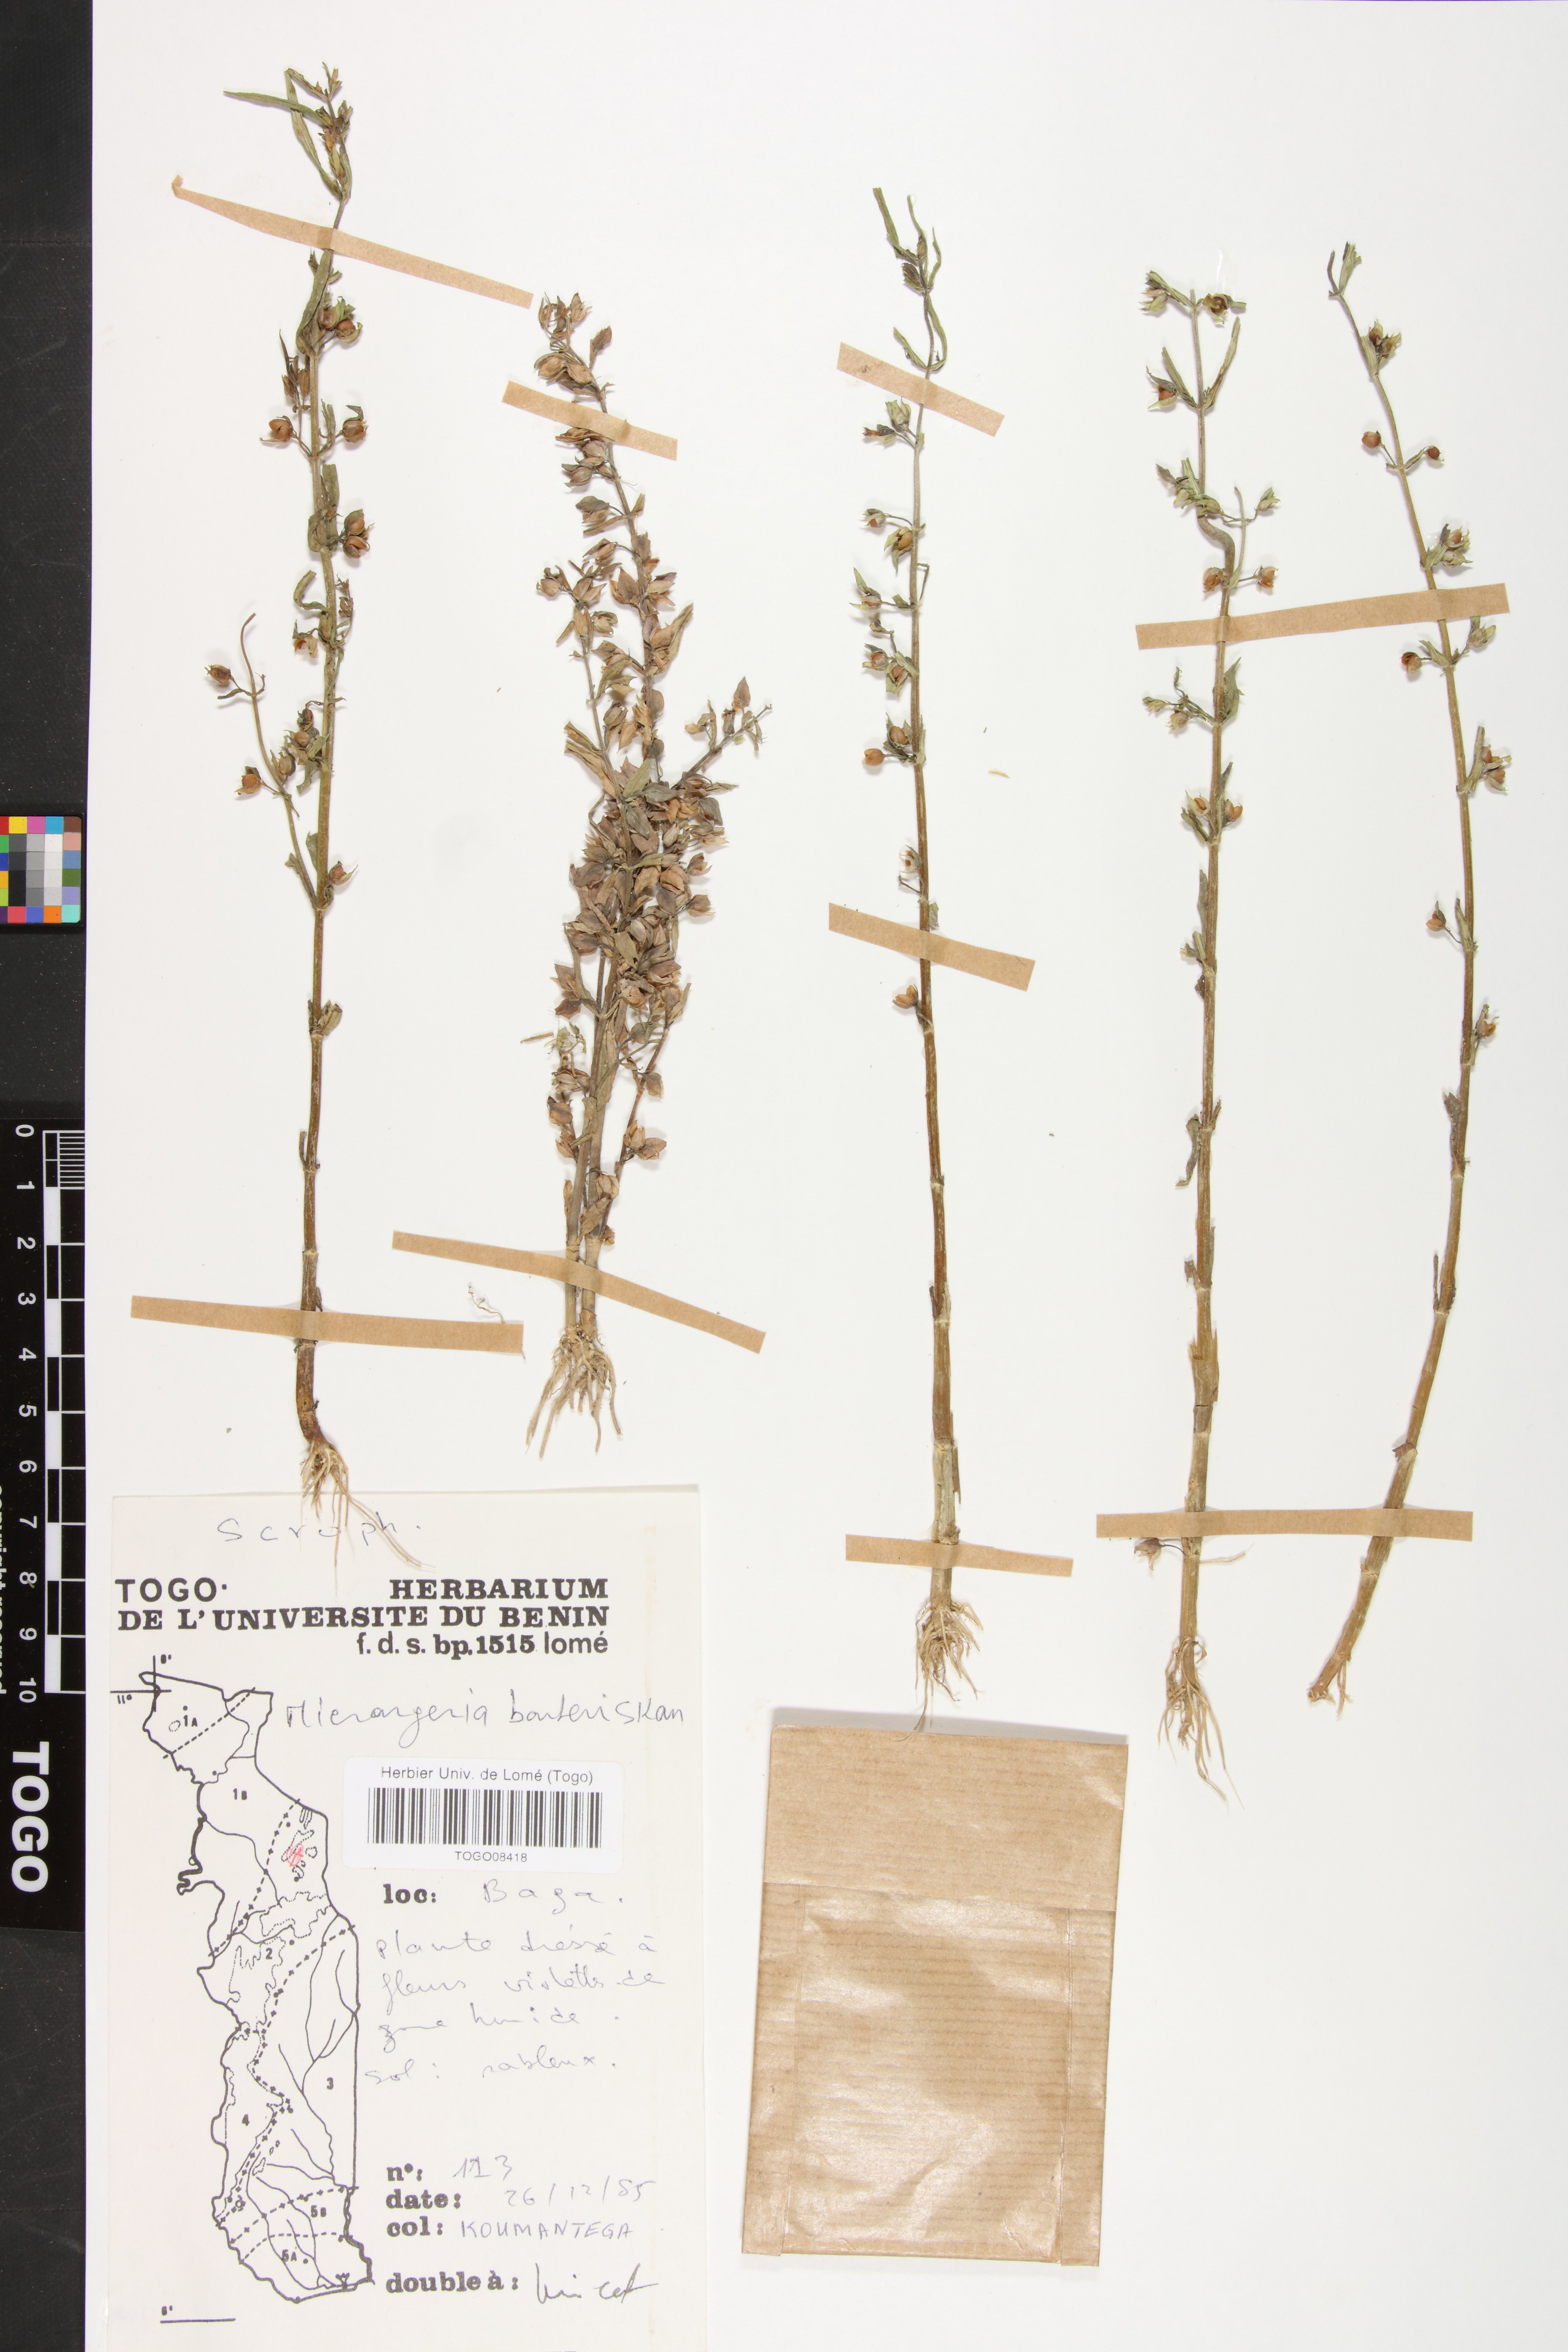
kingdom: Plantae
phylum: Tracheophyta
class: Magnoliopsida
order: Lamiales
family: Orobanchaceae
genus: Micrargeria
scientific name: Micrargeria filiformis
